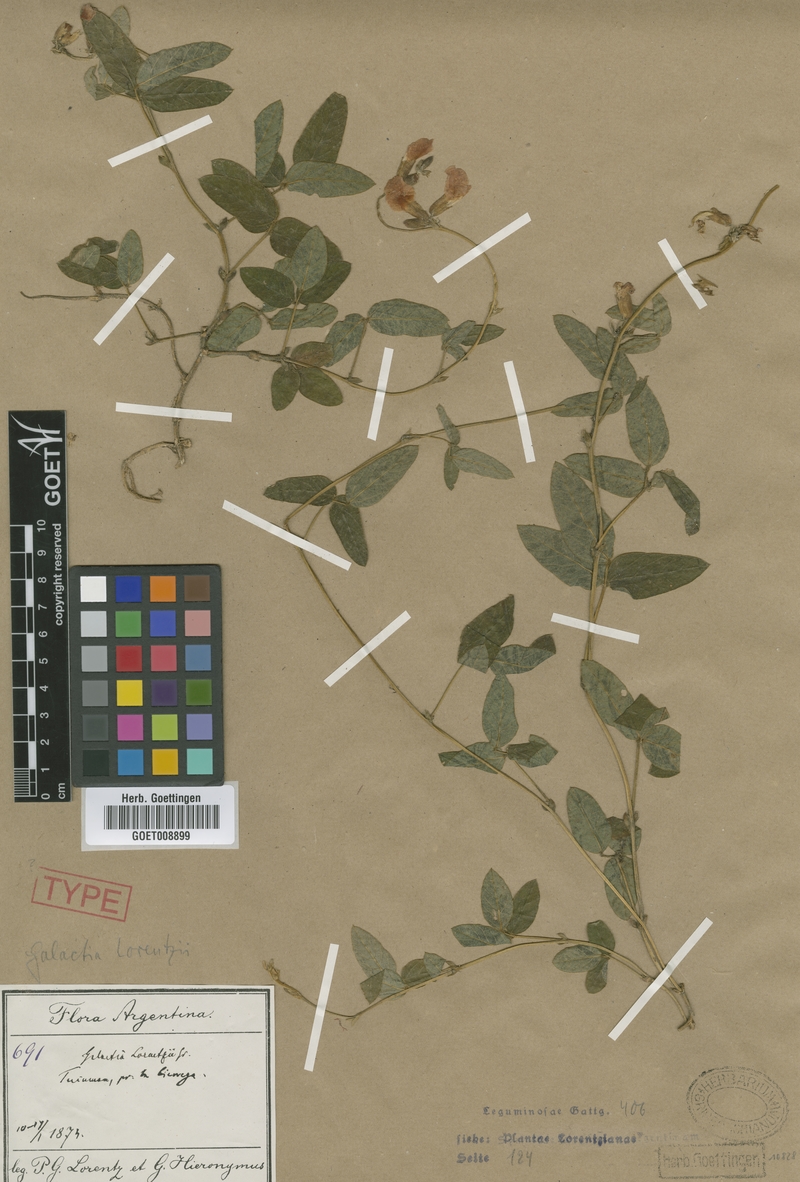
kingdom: Plantae
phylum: Tracheophyta
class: Magnoliopsida
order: Fabales
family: Fabaceae
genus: Cologania
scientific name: Cologania broussonetii
